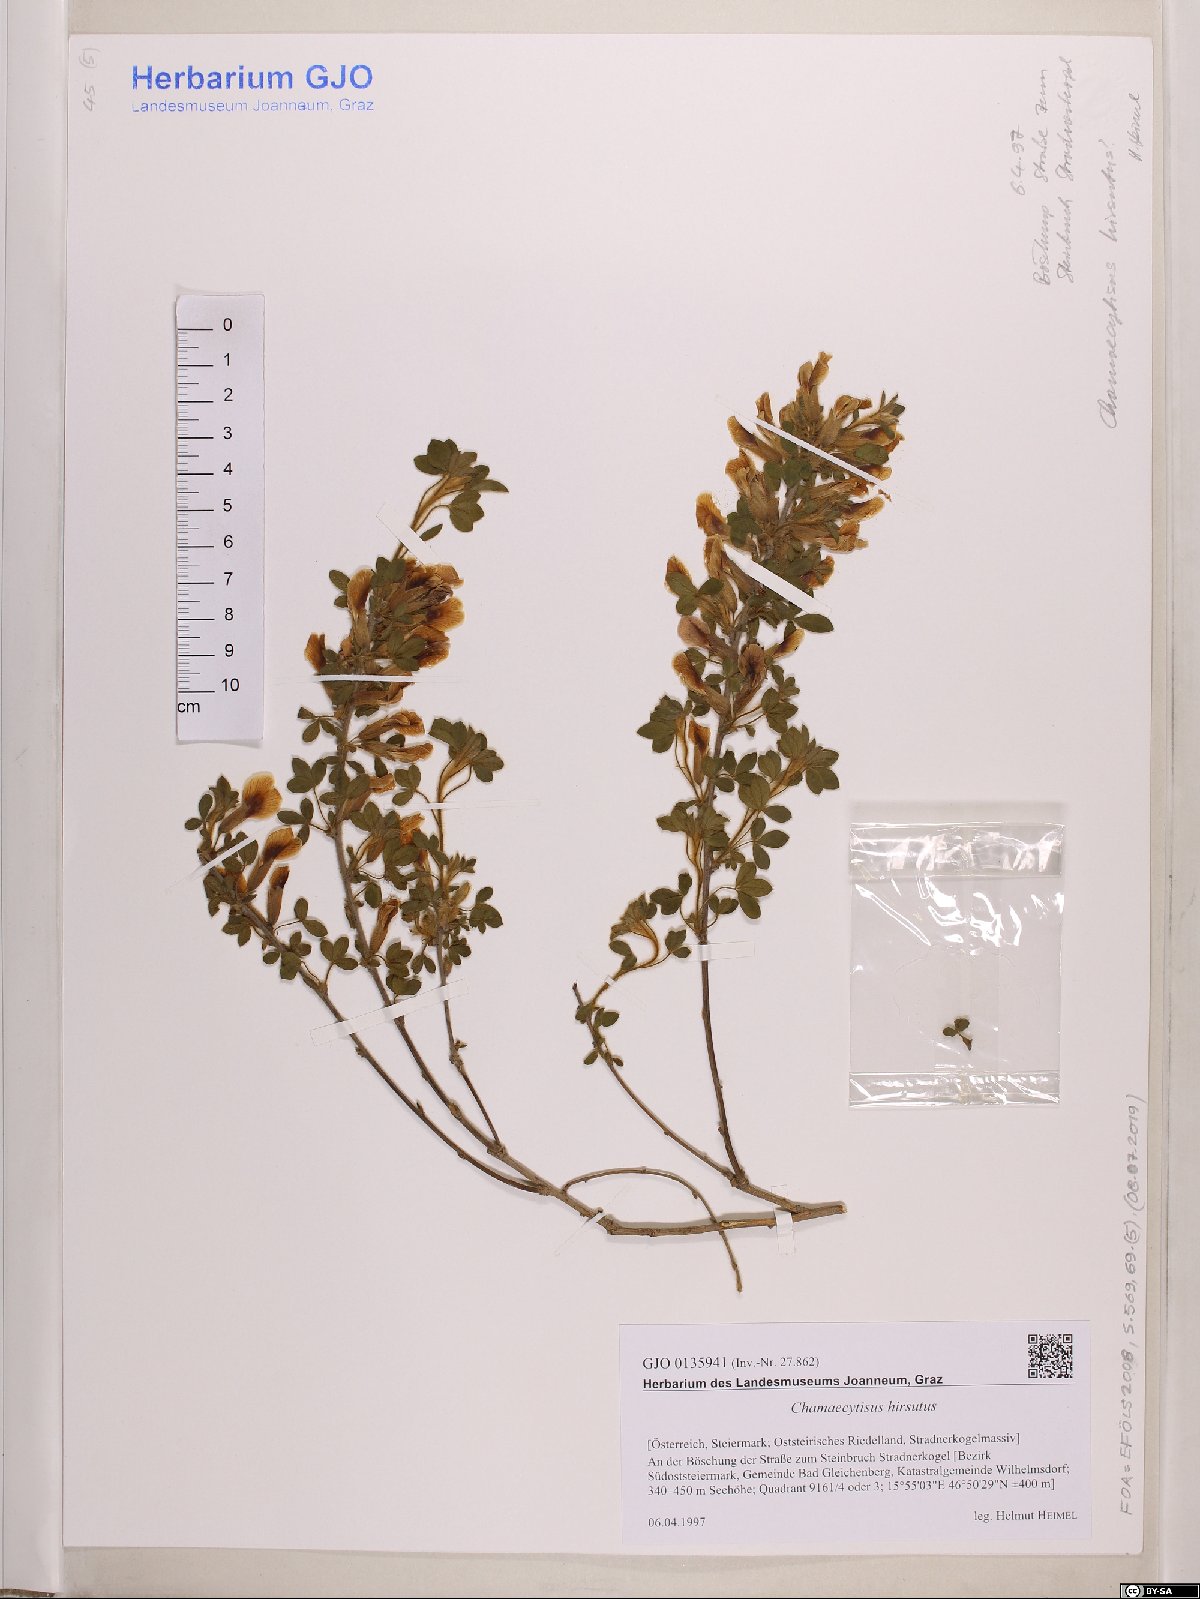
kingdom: Plantae
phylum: Tracheophyta
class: Magnoliopsida
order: Fabales
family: Fabaceae
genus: Chamaecytisus
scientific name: Chamaecytisus hirsutus
